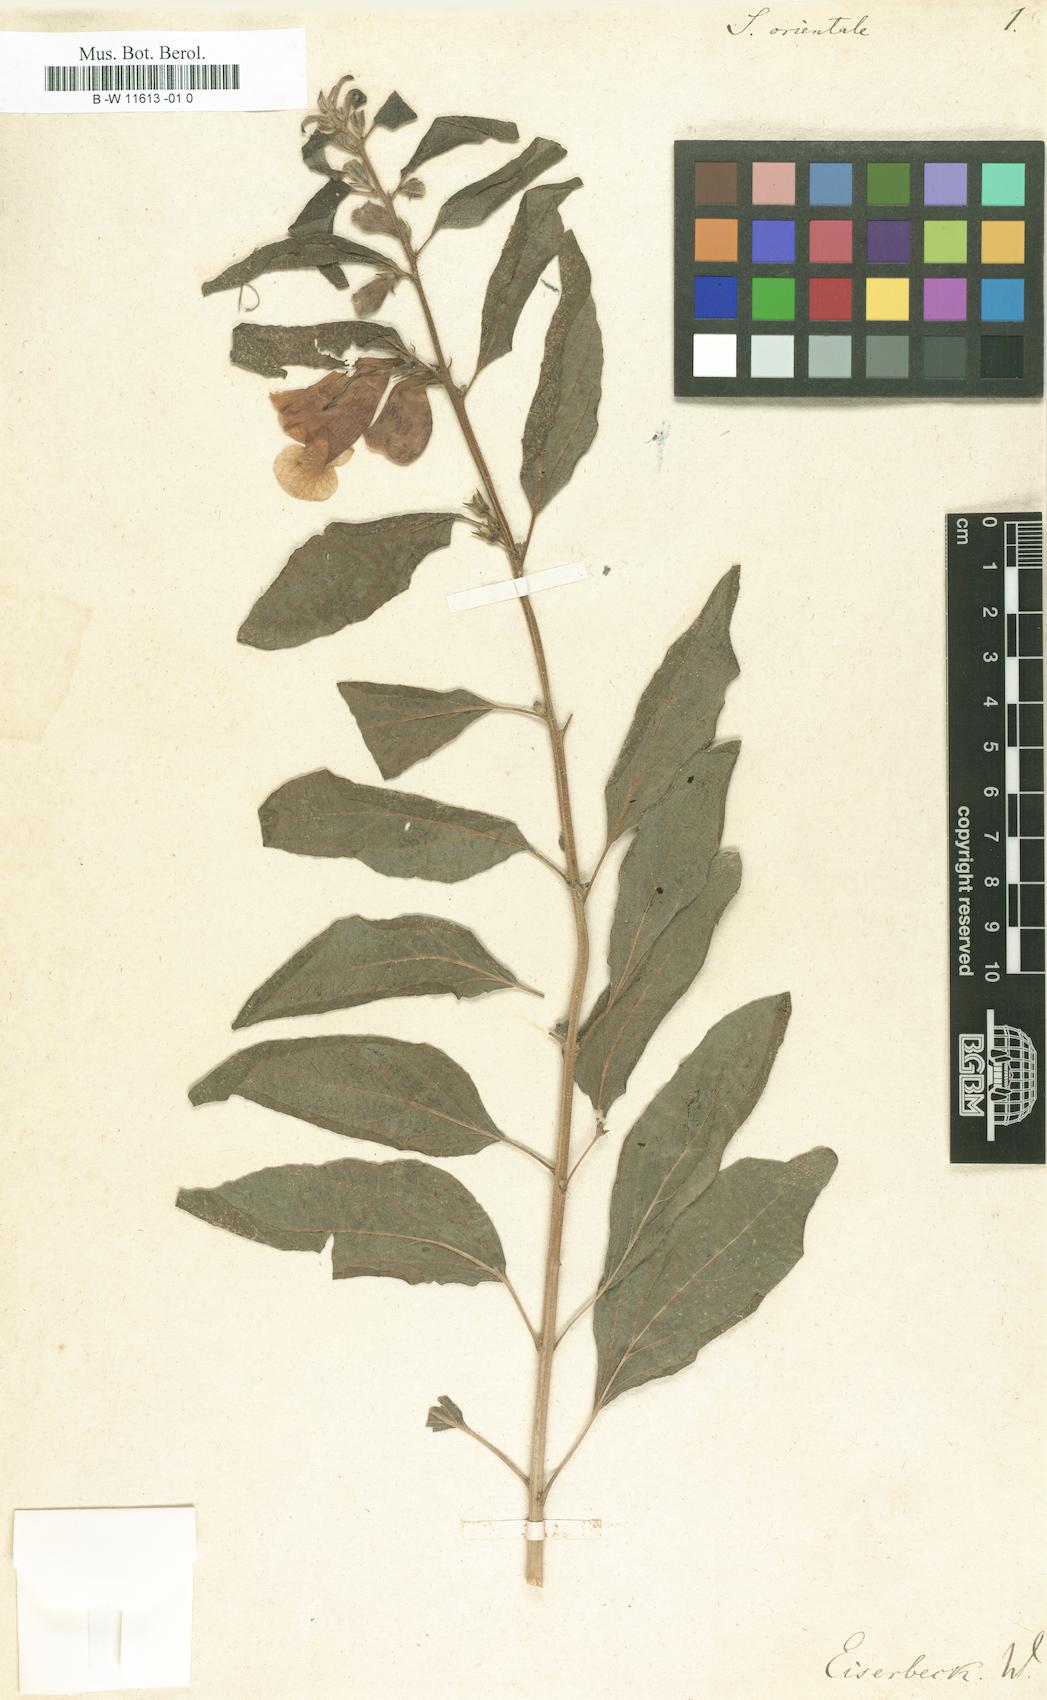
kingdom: Plantae
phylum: Tracheophyta
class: Magnoliopsida
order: Lamiales
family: Pedaliaceae
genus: Sesamum
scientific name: Sesamum orientale
